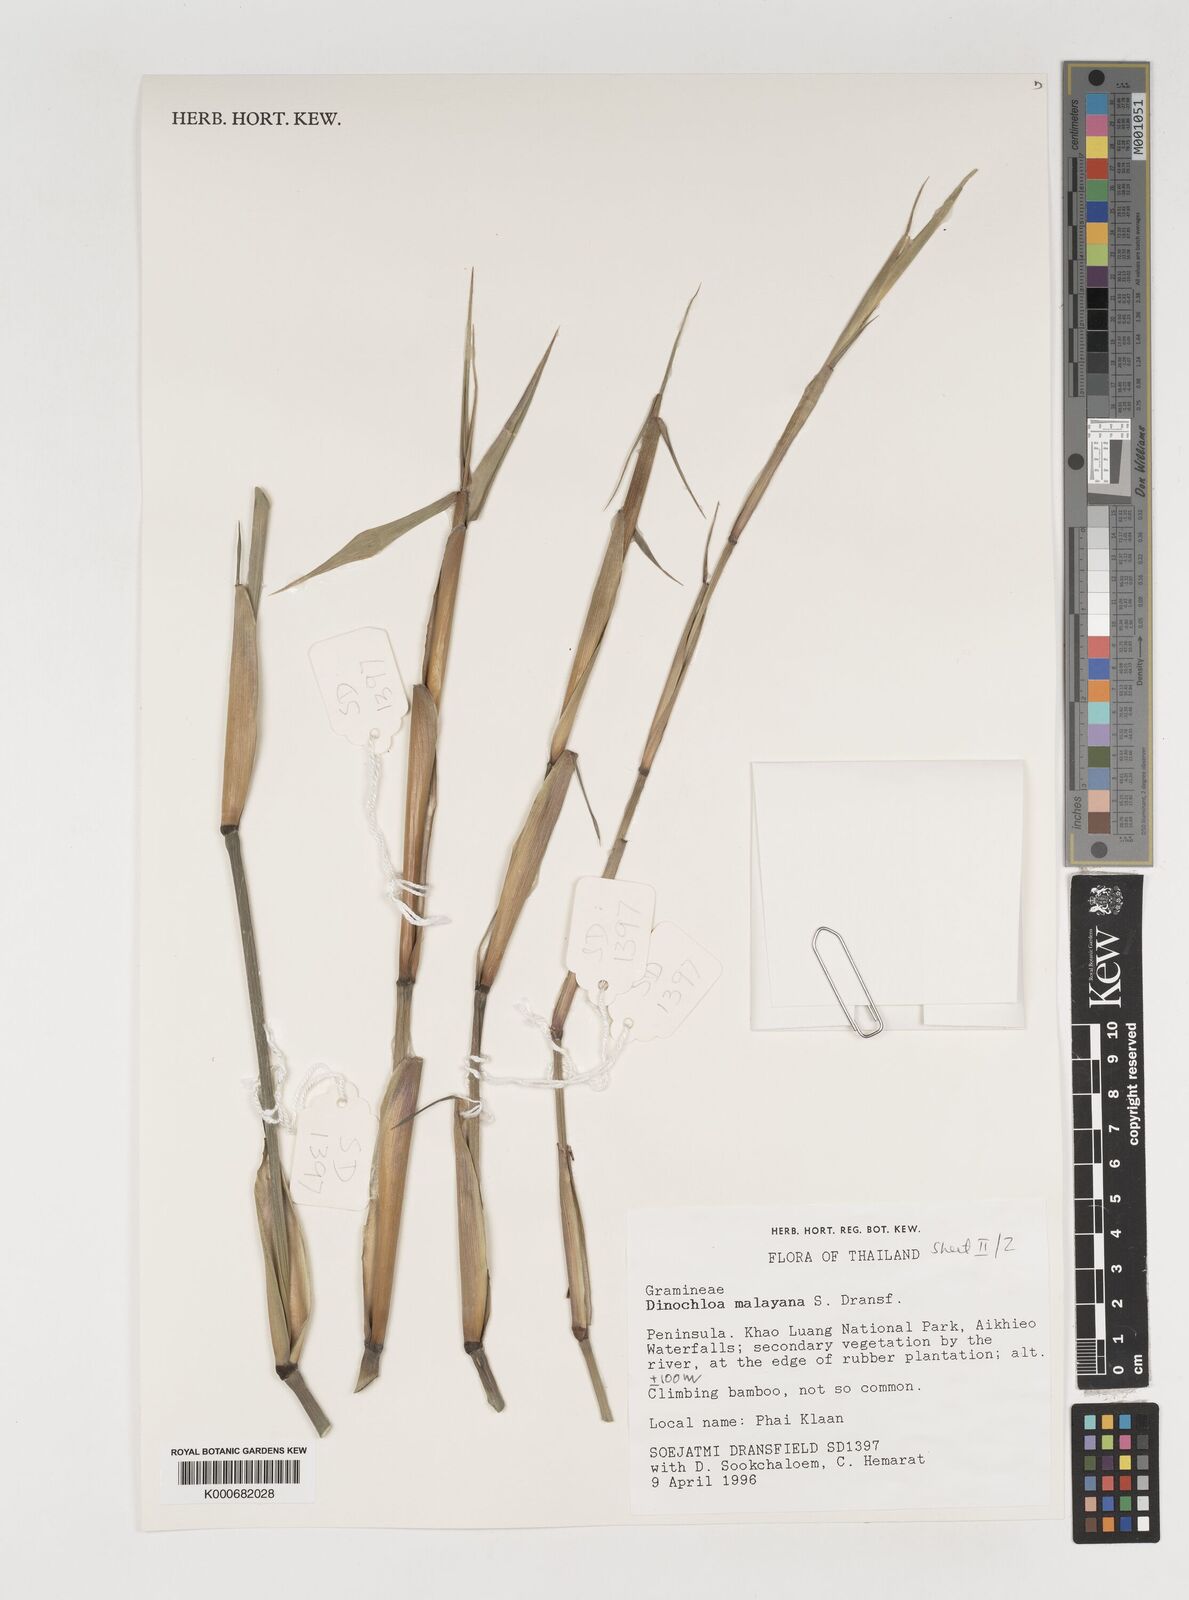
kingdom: Plantae
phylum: Tracheophyta
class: Liliopsida
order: Poales
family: Poaceae
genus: Dinochloa
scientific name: Dinochloa malayana
